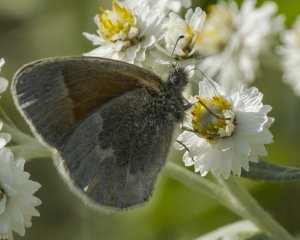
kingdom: Animalia
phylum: Arthropoda
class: Insecta
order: Lepidoptera
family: Nymphalidae
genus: Coenonympha
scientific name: Coenonympha tullia
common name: Large Heath
